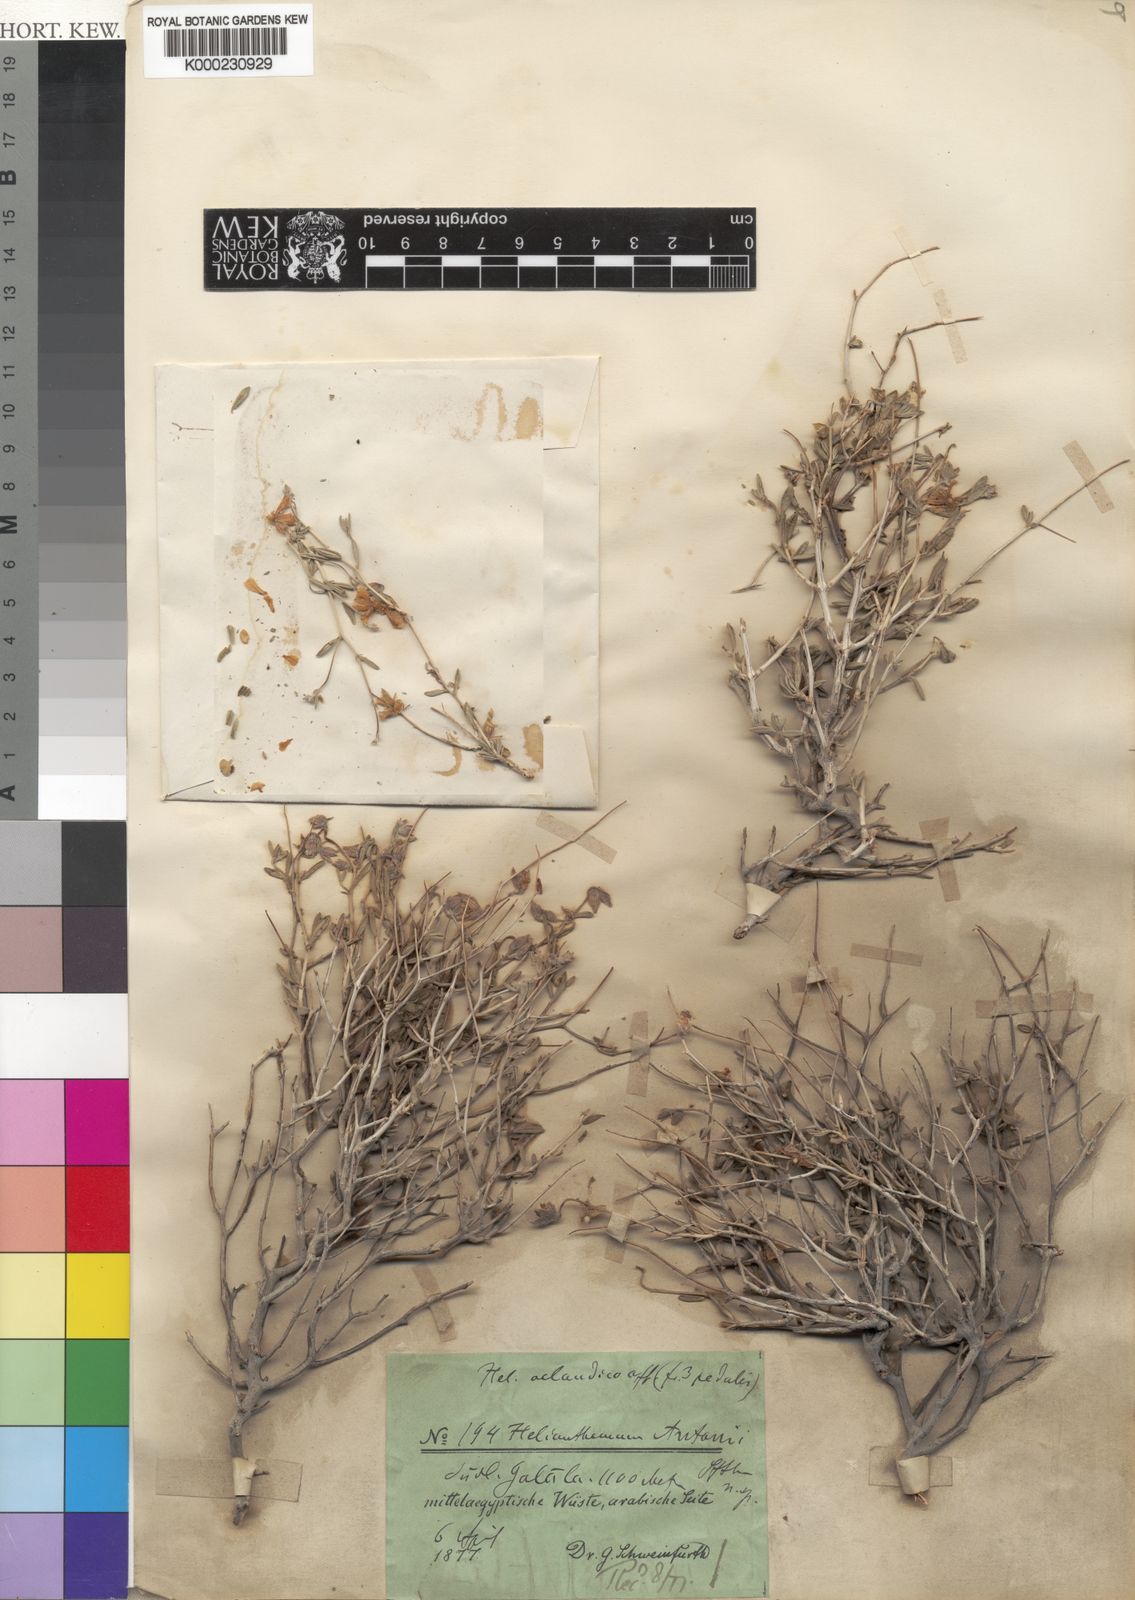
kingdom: Plantae
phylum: Tracheophyta
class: Magnoliopsida
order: Malvales
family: Cistaceae
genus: Helianthemum
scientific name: Helianthemum
